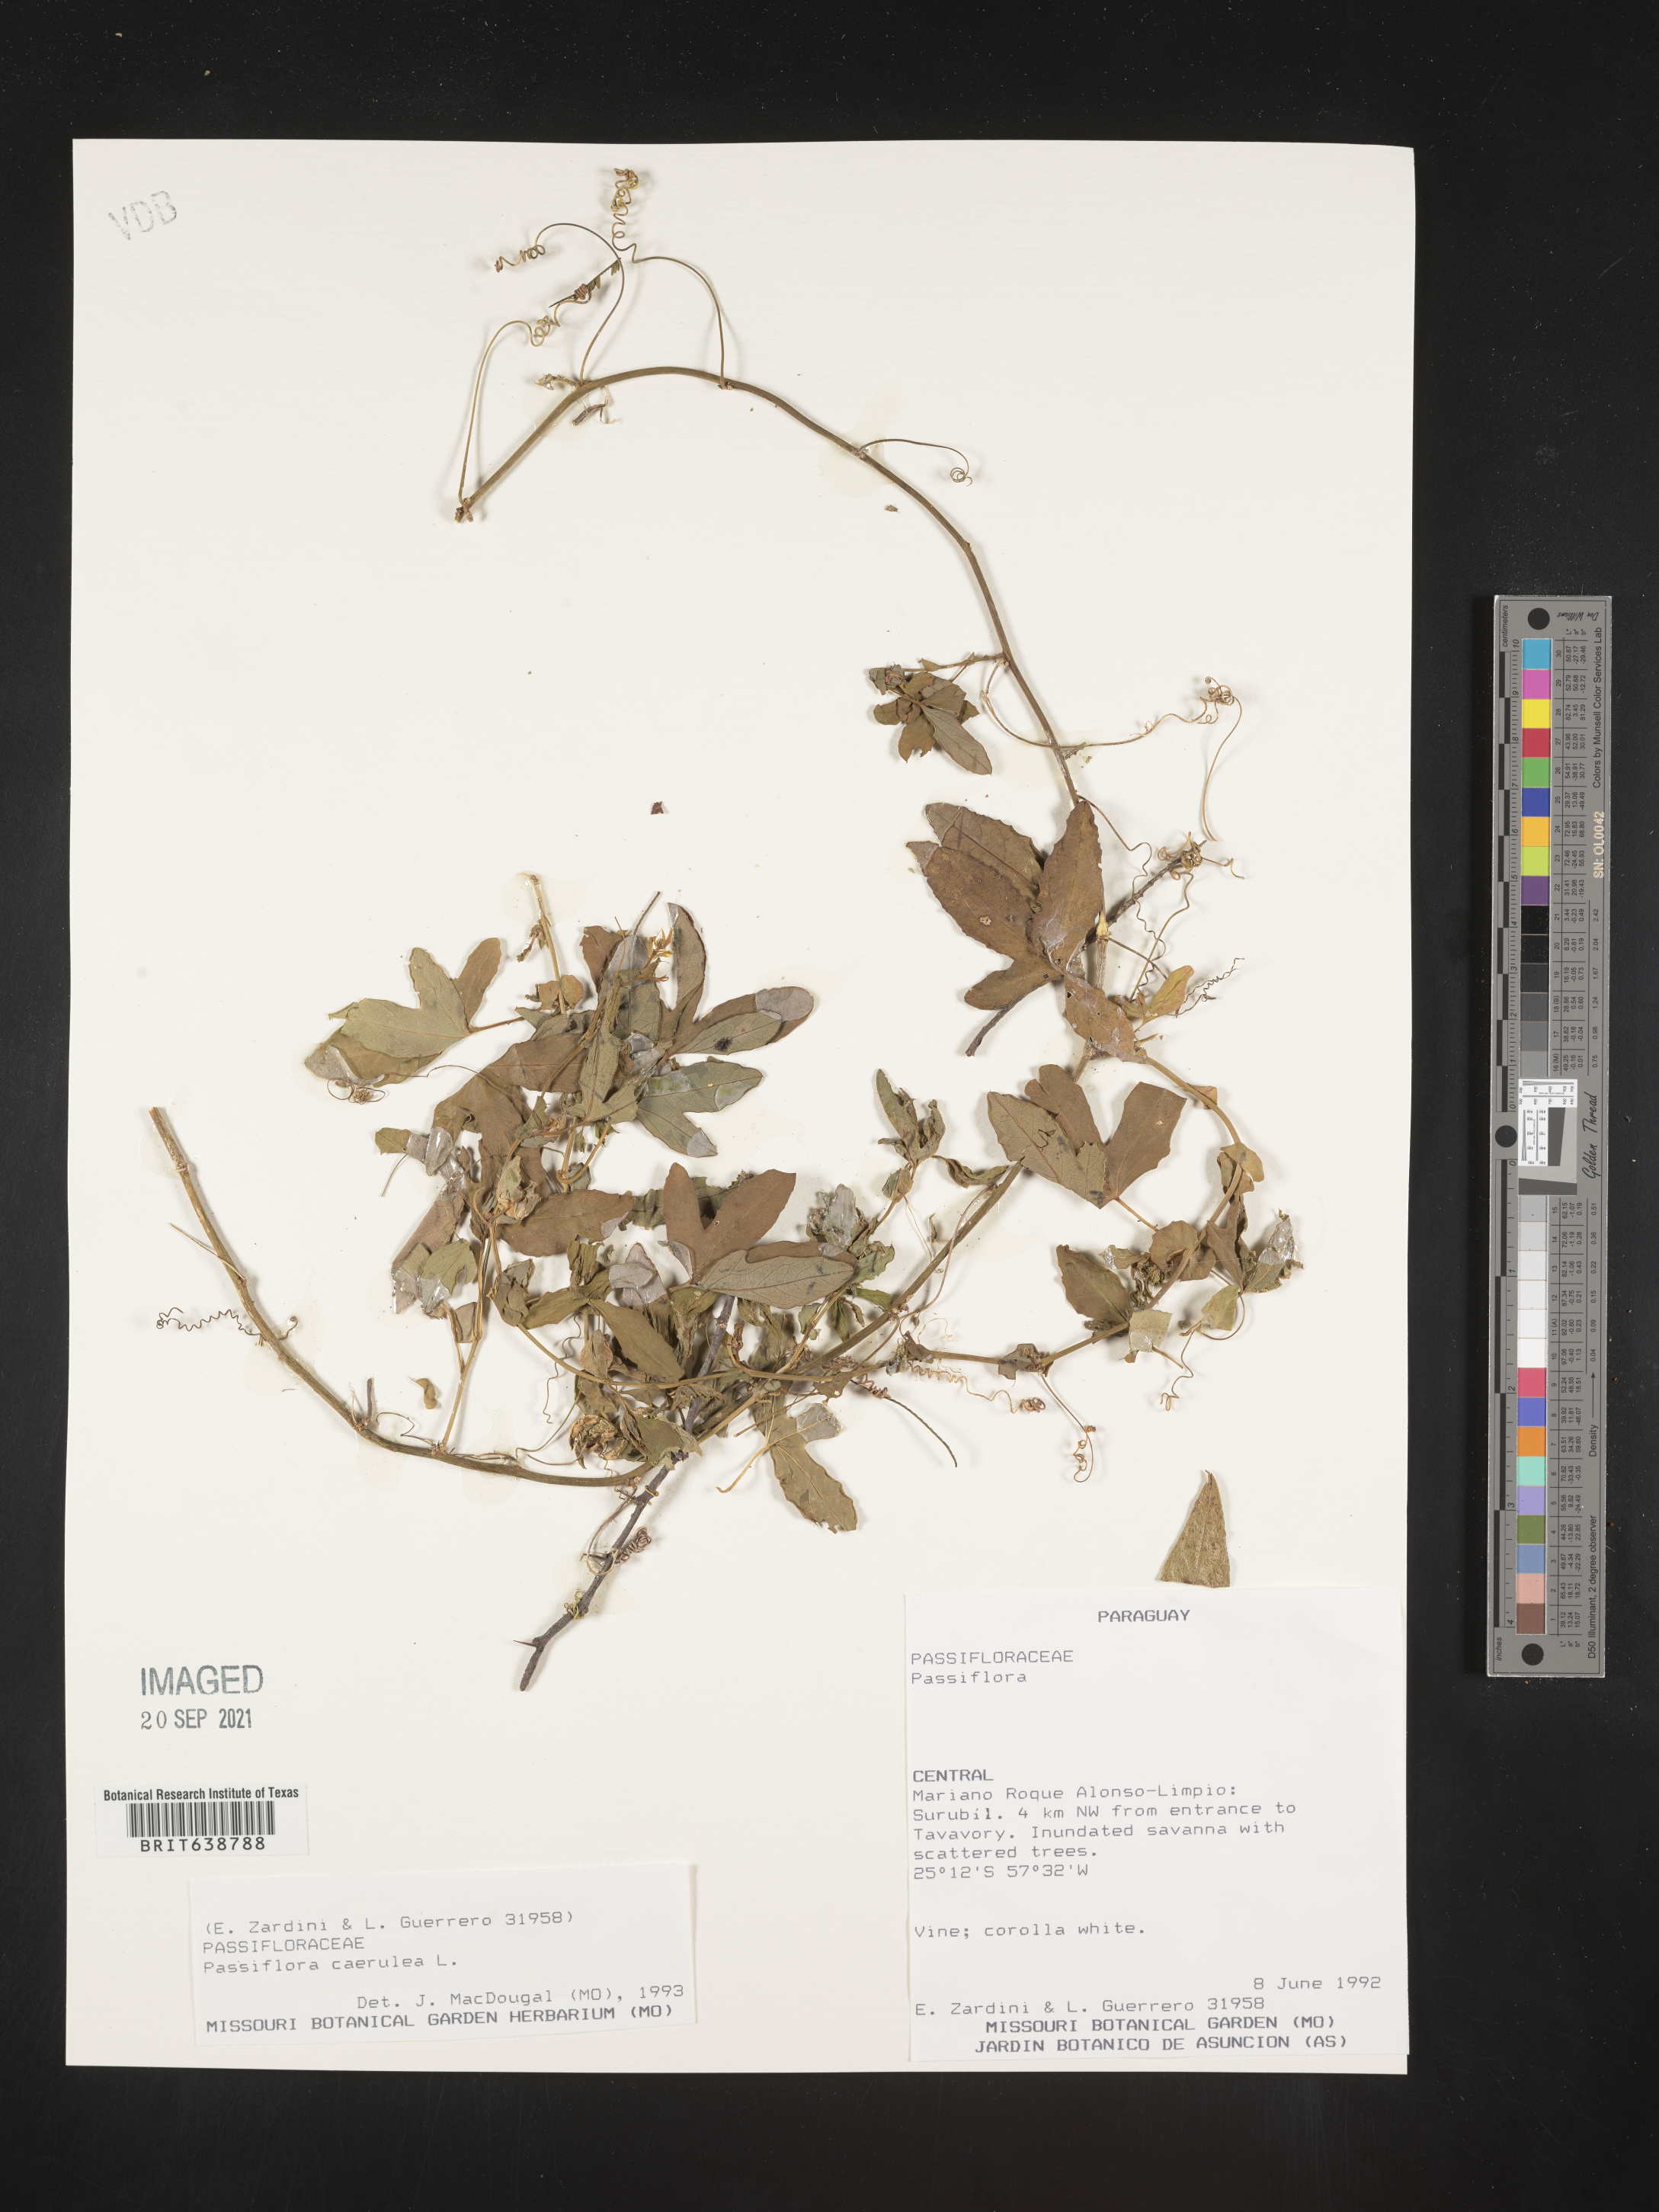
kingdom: Plantae
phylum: Tracheophyta
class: Magnoliopsida
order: Malpighiales
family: Passifloraceae
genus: Passiflora
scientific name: Passiflora
